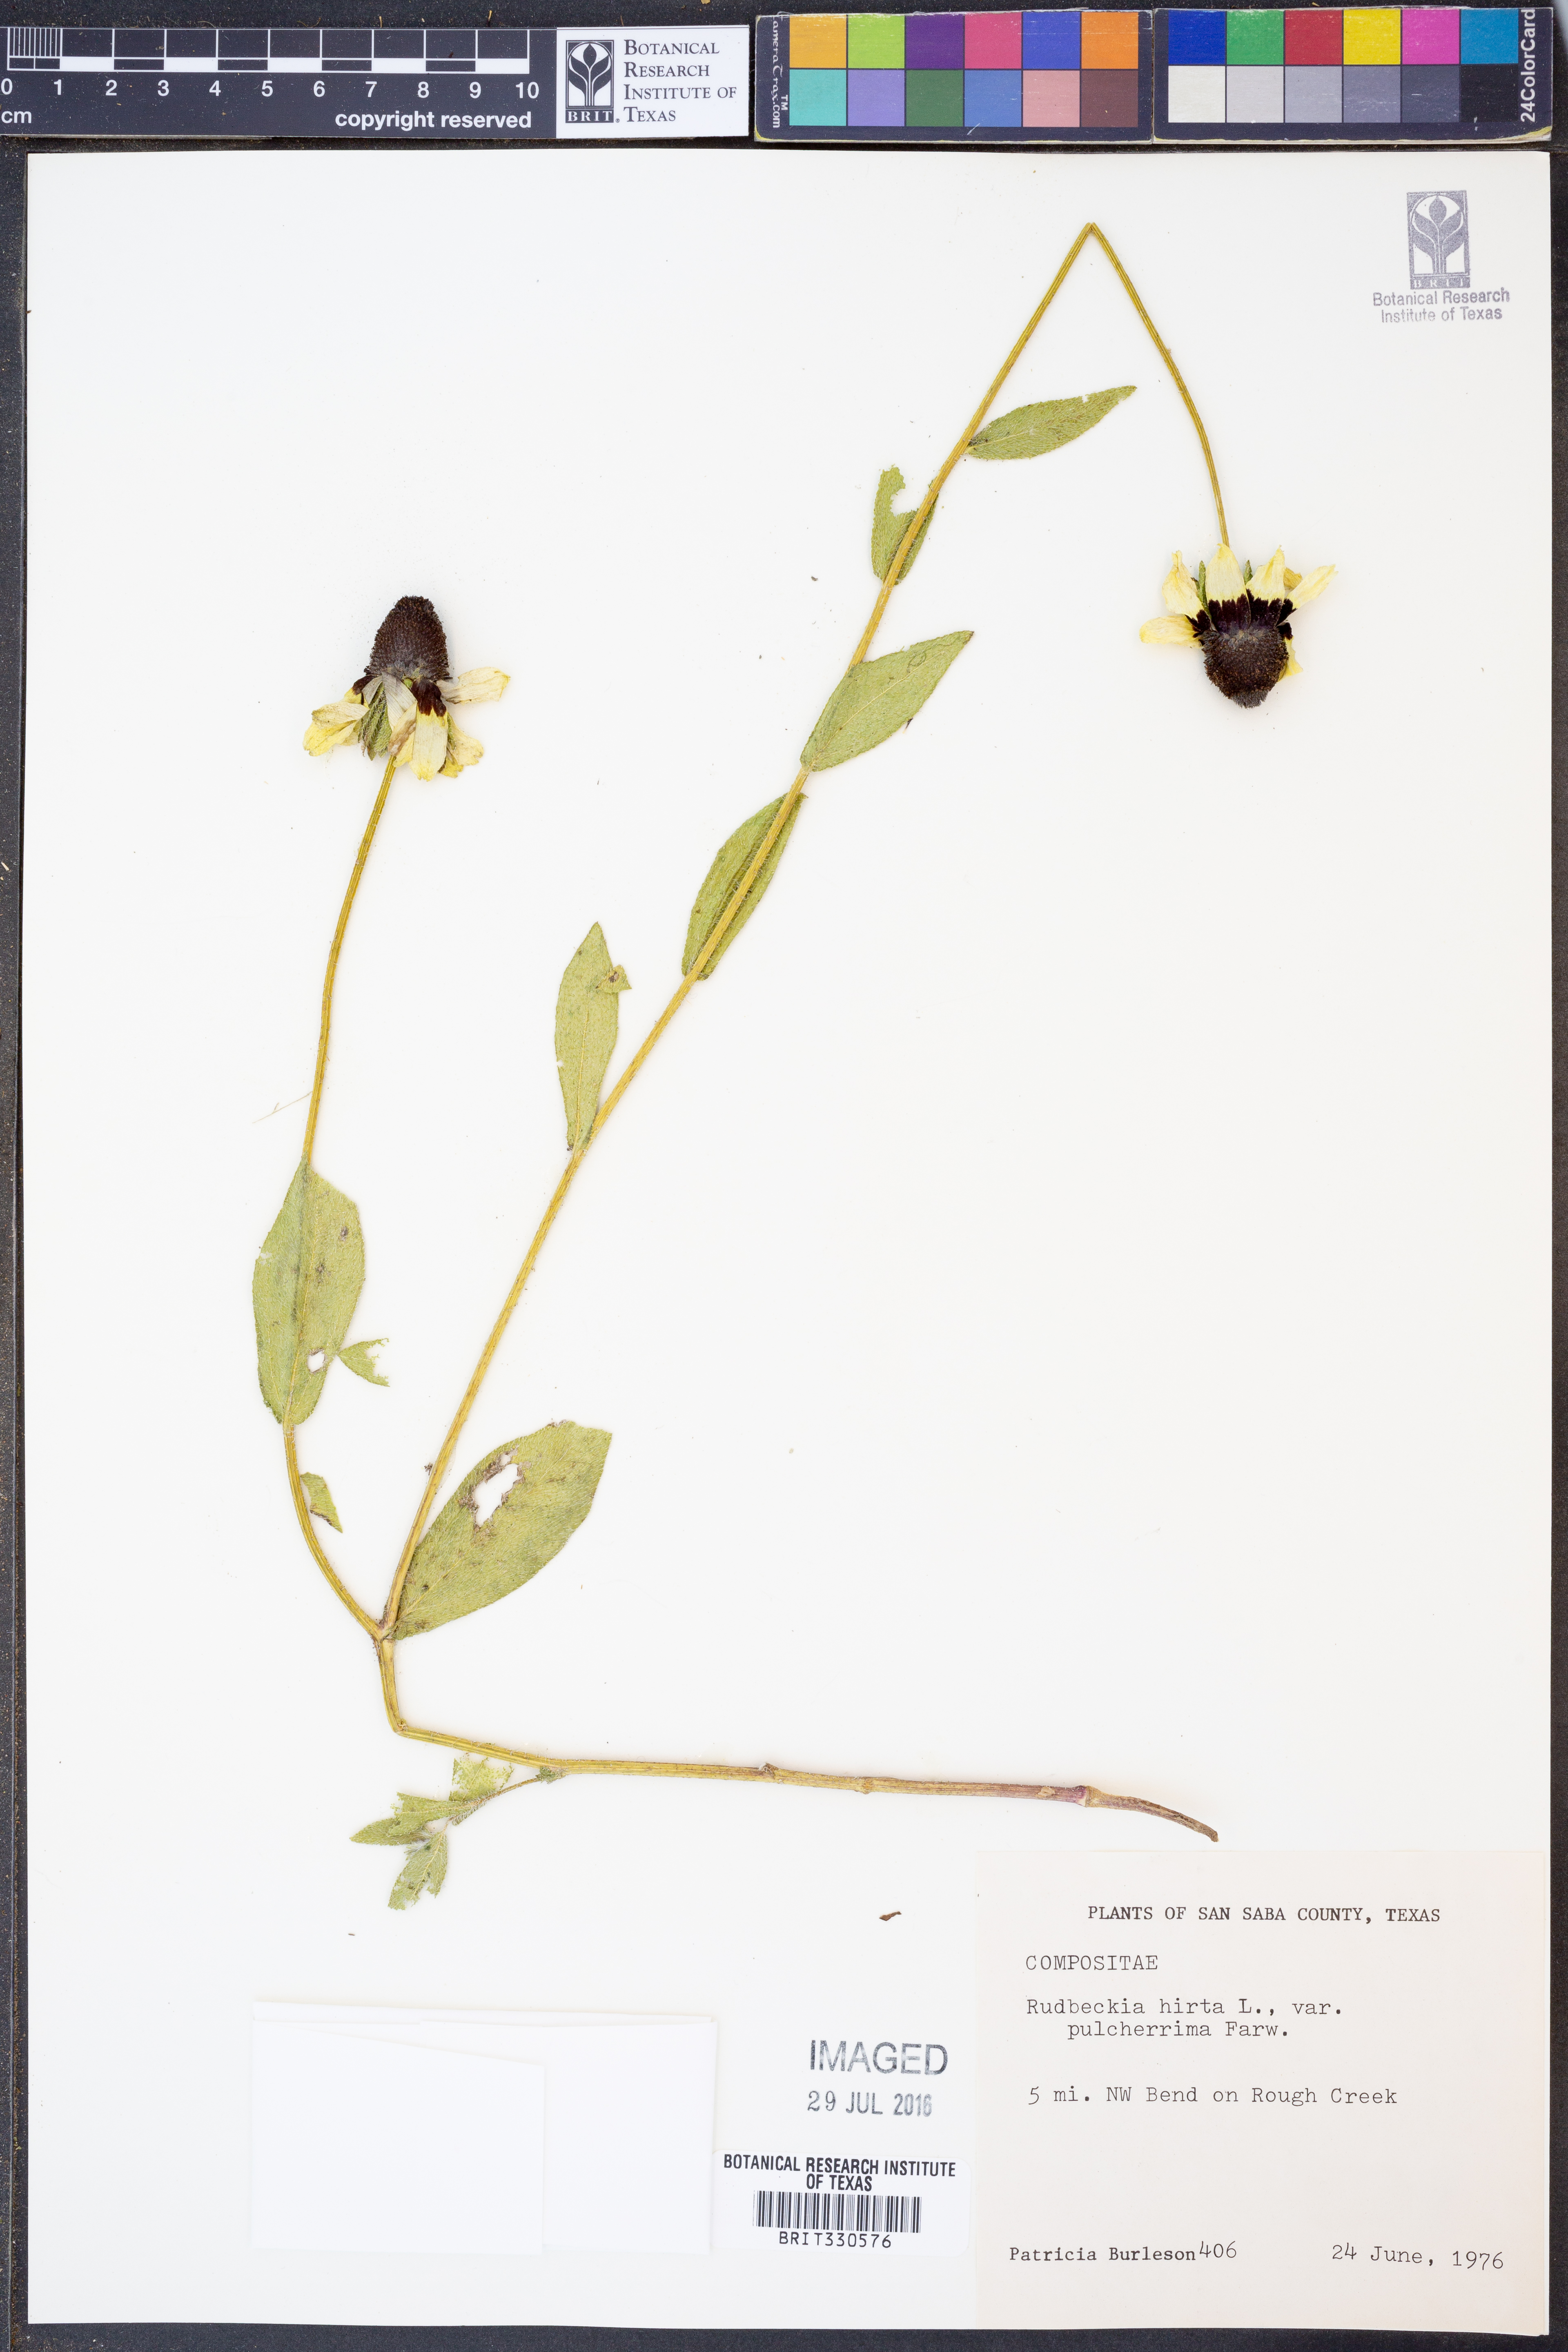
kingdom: Plantae
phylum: Tracheophyta
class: Magnoliopsida
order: Asterales
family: Asteraceae
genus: Rudbeckia
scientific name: Rudbeckia hirta
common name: Black-eyed-susan
